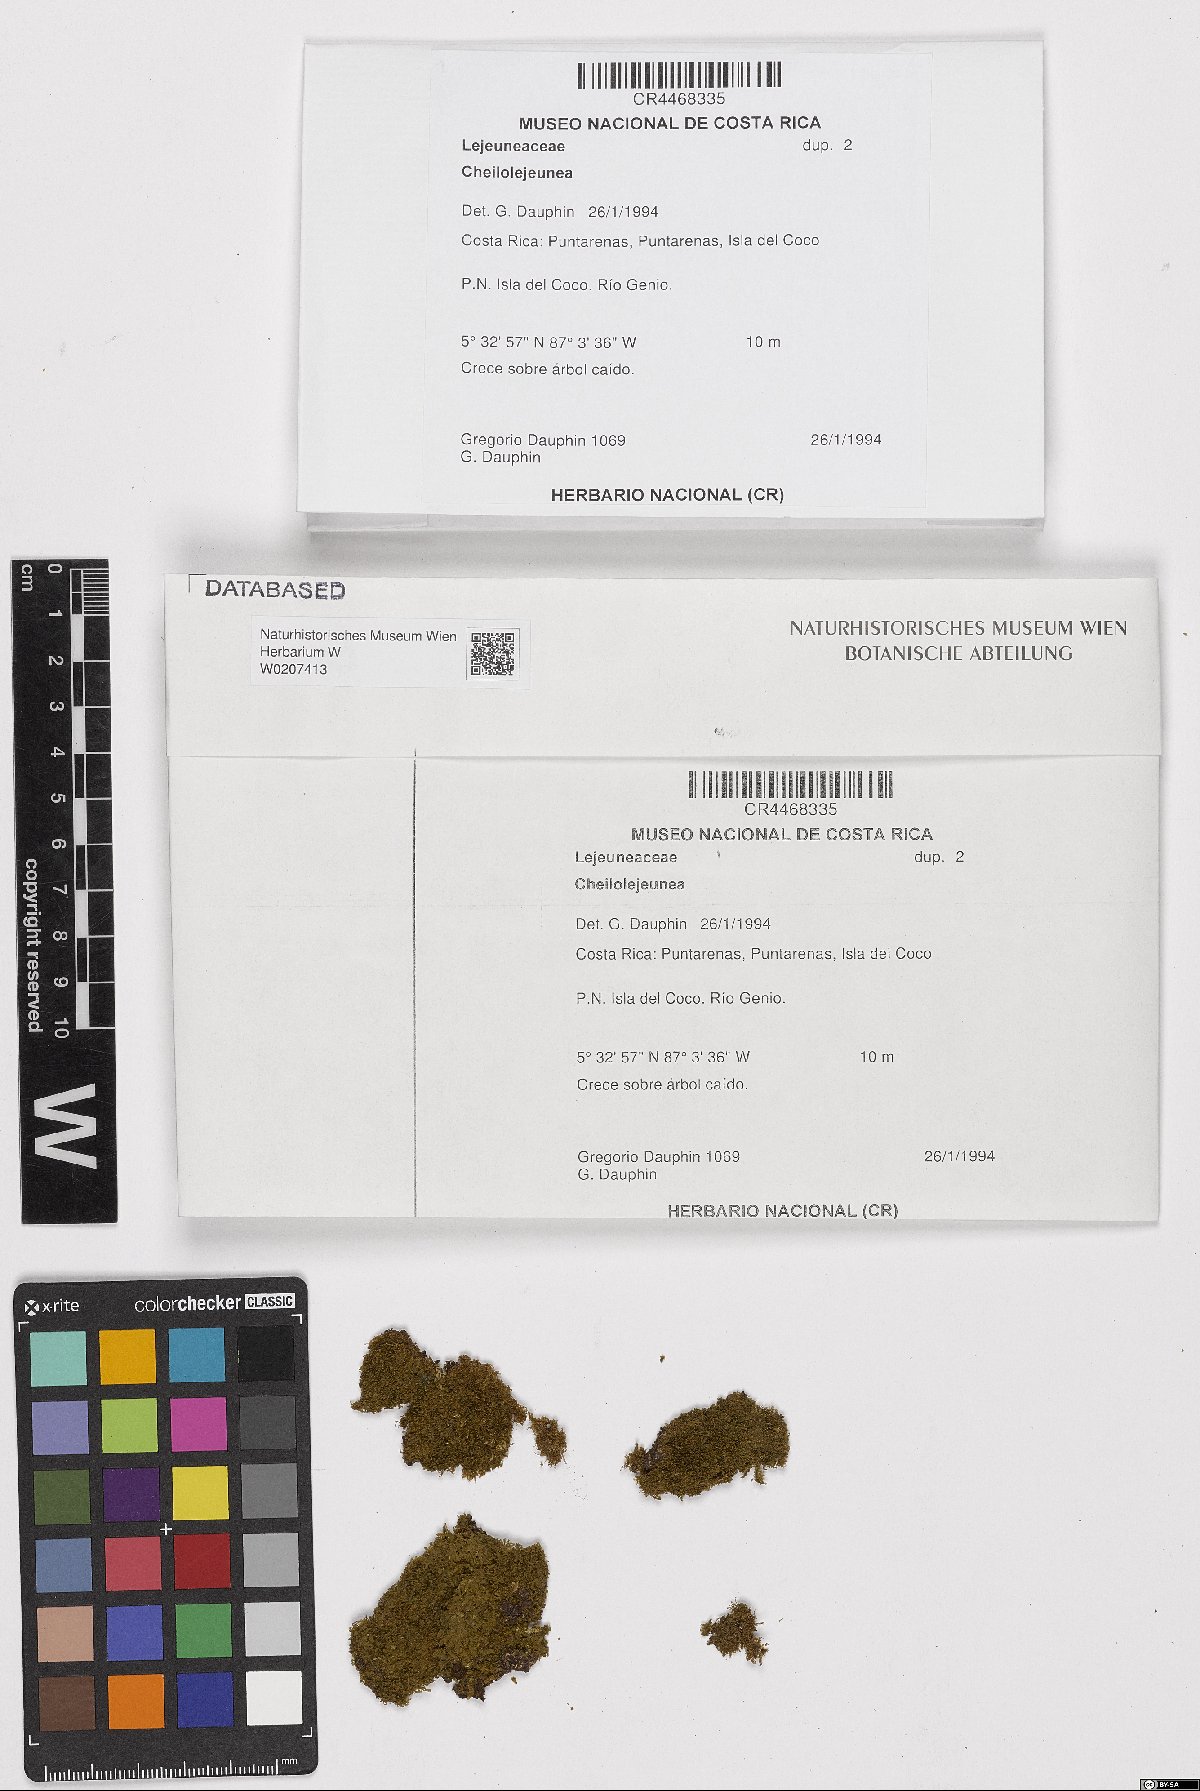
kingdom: Plantae
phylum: Marchantiophyta
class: Jungermanniopsida
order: Porellales
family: Lejeuneaceae
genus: Cheilolejeunea
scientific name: Cheilolejeunea
